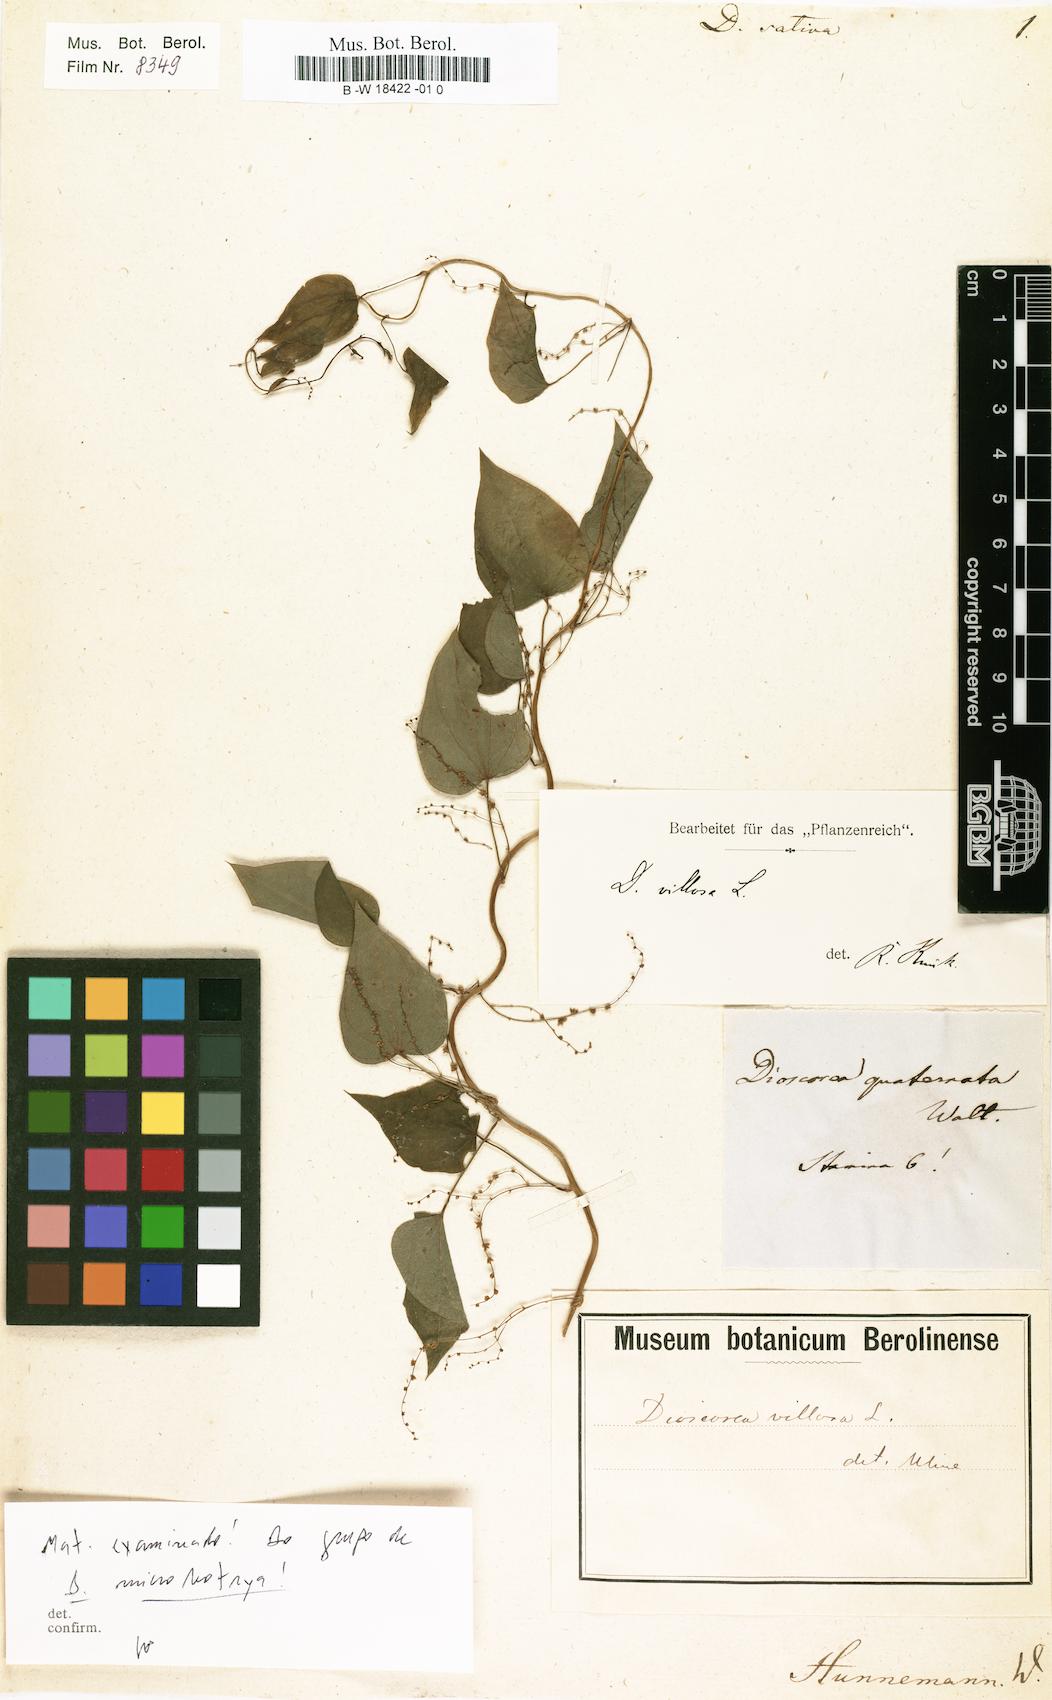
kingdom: Plantae
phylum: Tracheophyta
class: Liliopsida
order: Dioscoreales
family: Dioscoreaceae
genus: Dioscorea
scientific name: Dioscorea villosa
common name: Wild yam
